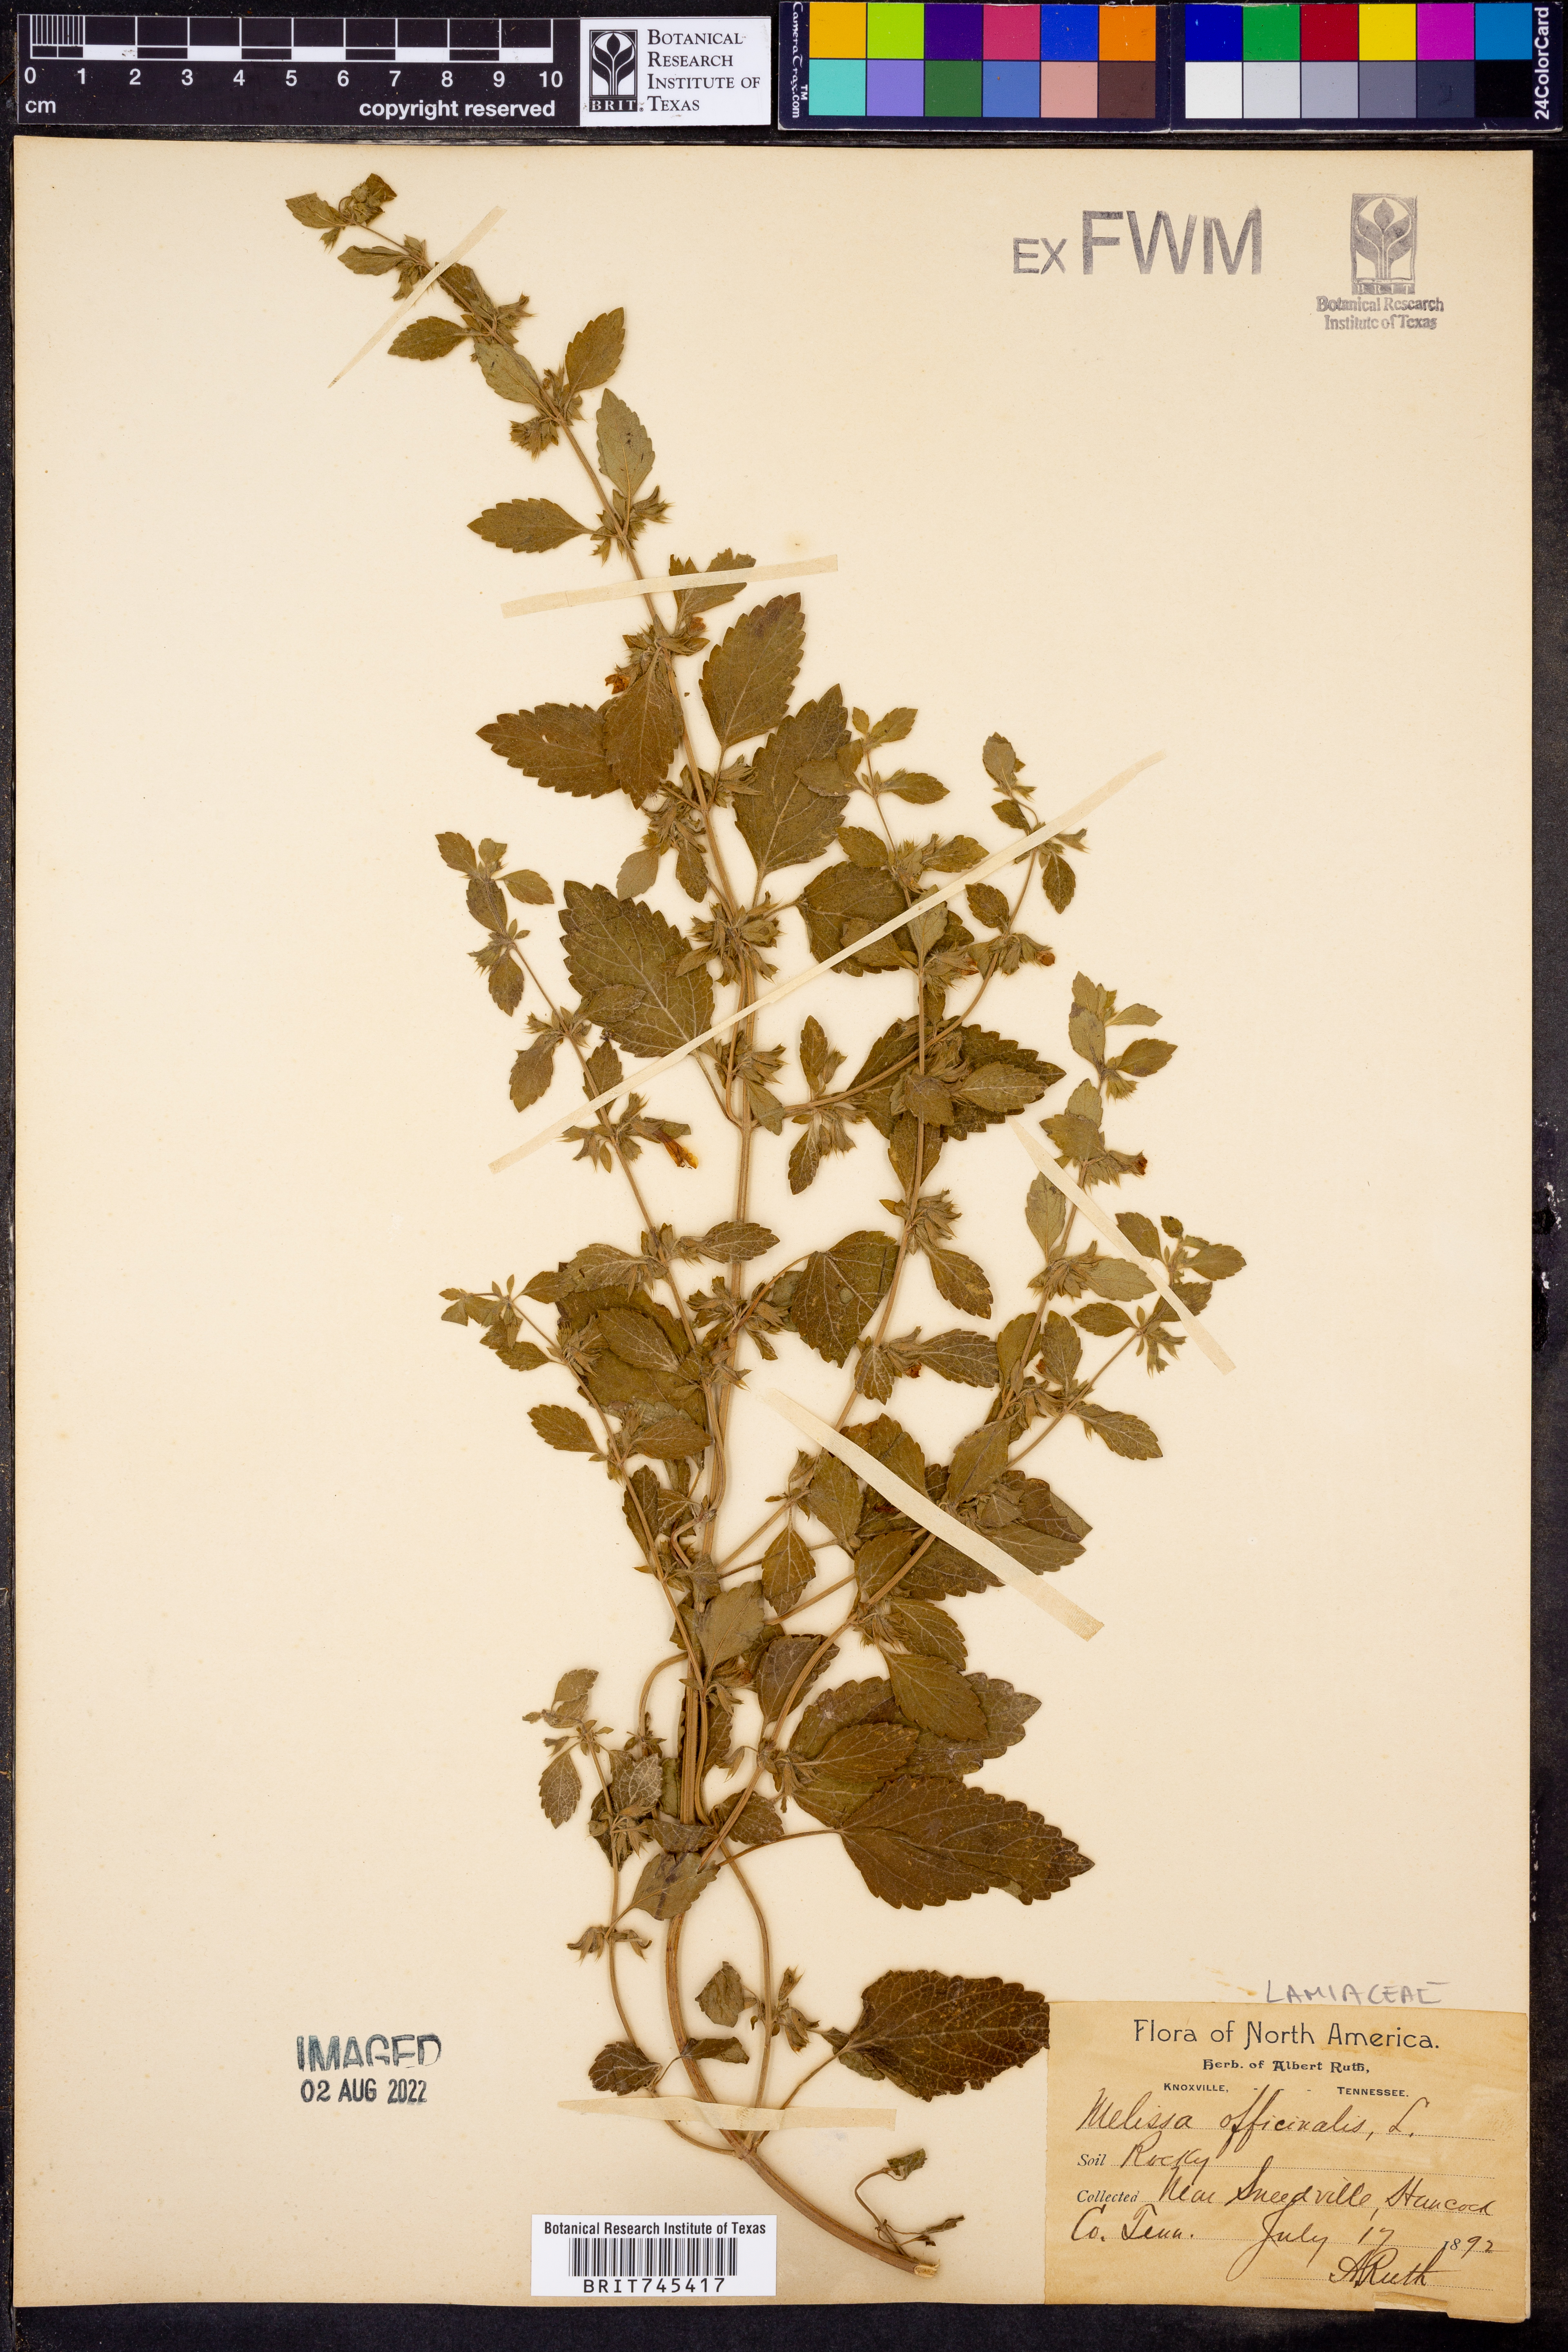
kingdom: Plantae
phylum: Tracheophyta
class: Magnoliopsida
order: Lamiales
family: Lamiaceae
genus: Melissa
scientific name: Melissa
